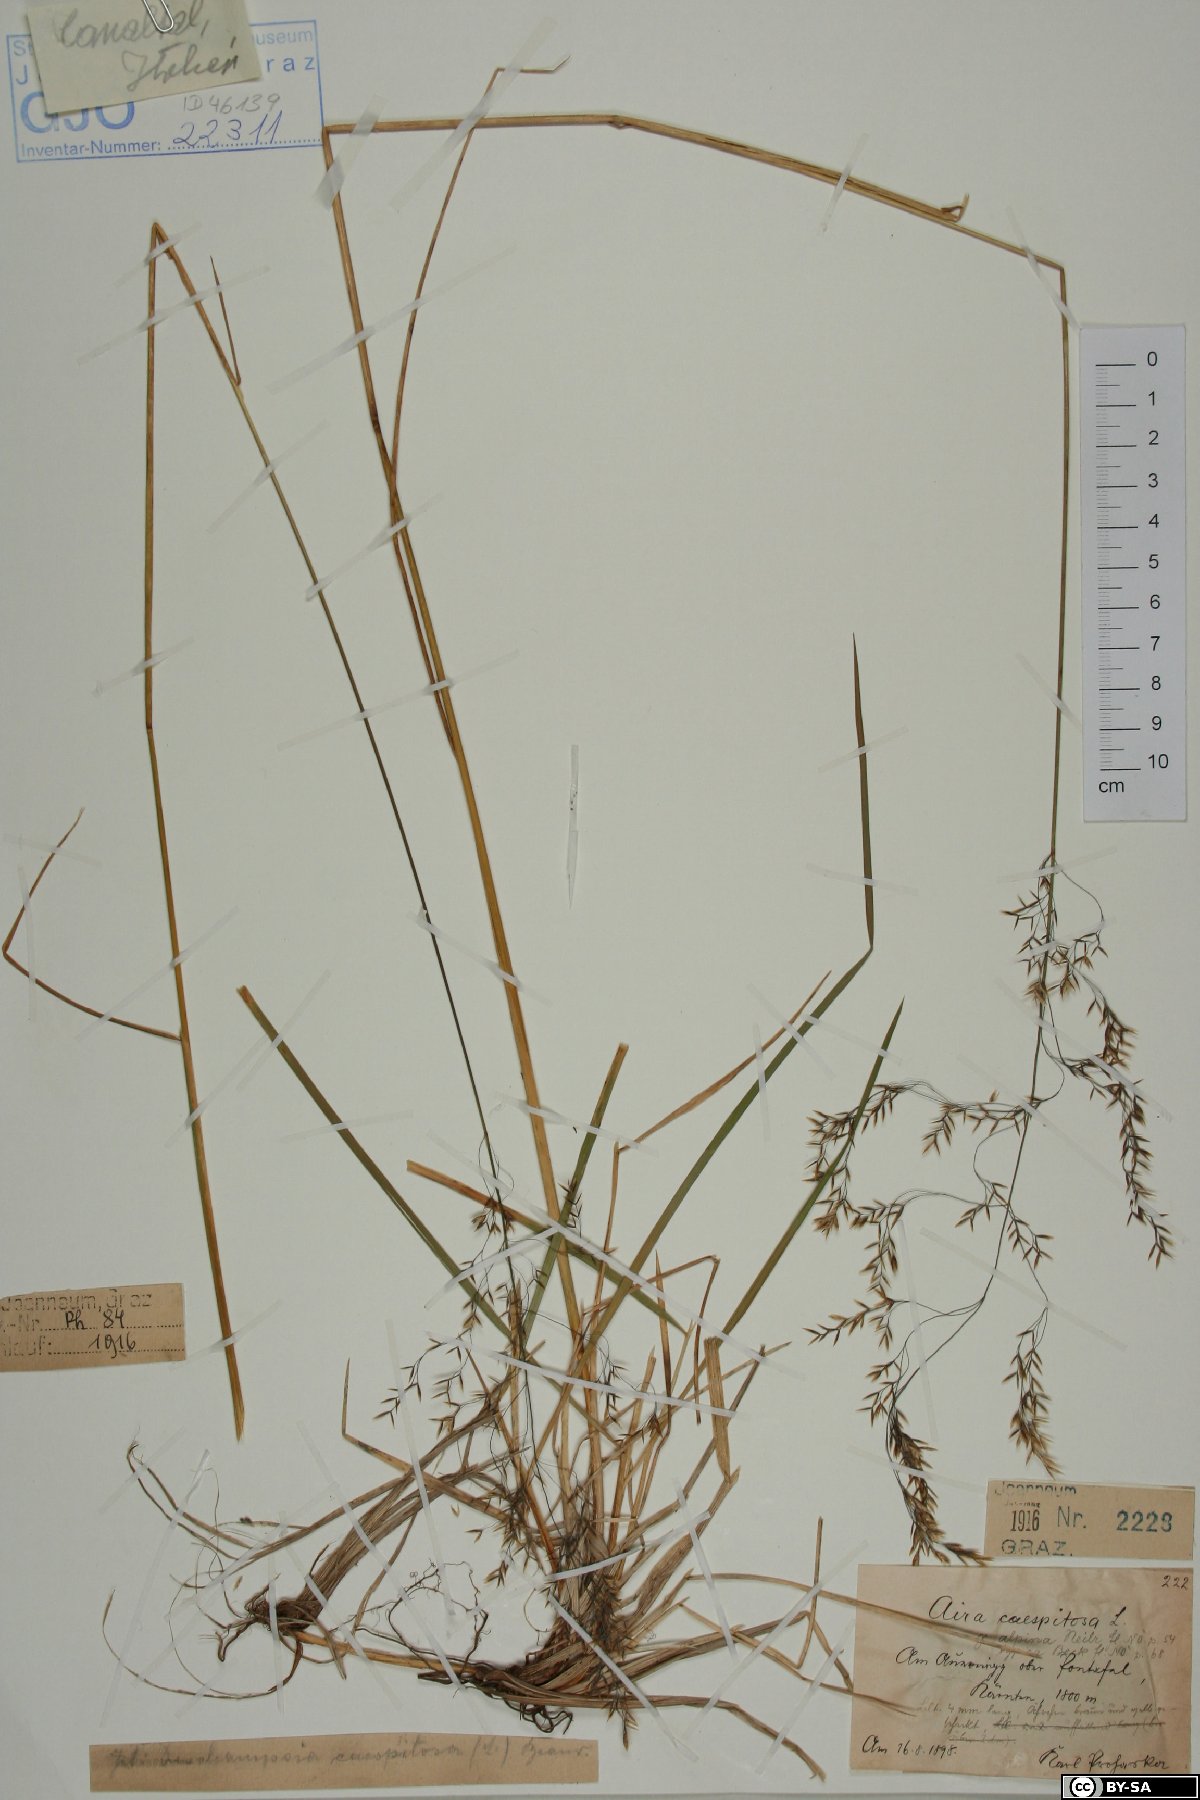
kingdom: Plantae
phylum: Tracheophyta
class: Liliopsida
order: Poales
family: Poaceae
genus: Deschampsia
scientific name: Deschampsia cespitosa
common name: Tufted hair-grass
